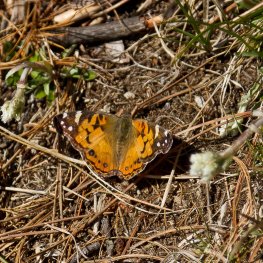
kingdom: Animalia
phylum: Arthropoda
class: Insecta
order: Lepidoptera
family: Nymphalidae
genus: Vanessa
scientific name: Vanessa virginiensis
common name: American Lady
